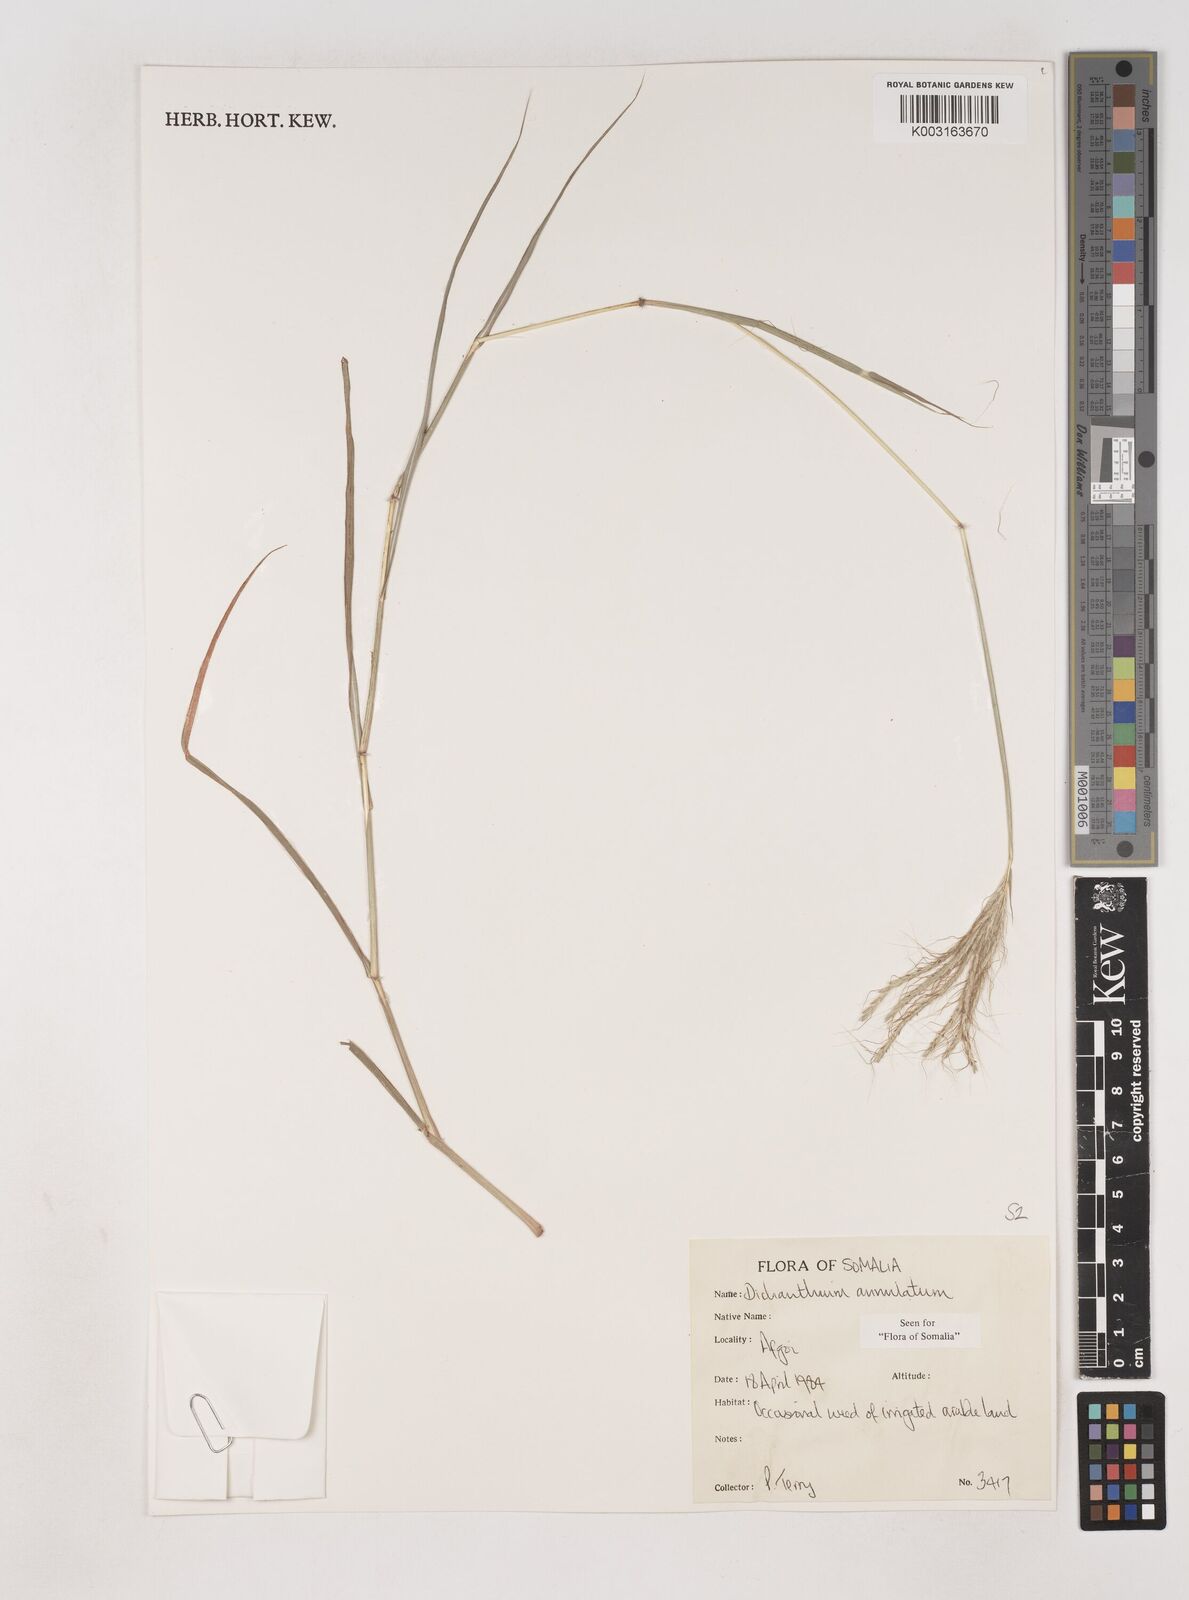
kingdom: Plantae
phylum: Tracheophyta
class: Liliopsida
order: Poales
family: Poaceae
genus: Dichanthium
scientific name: Dichanthium annulatum
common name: Kleberg's bluestem
